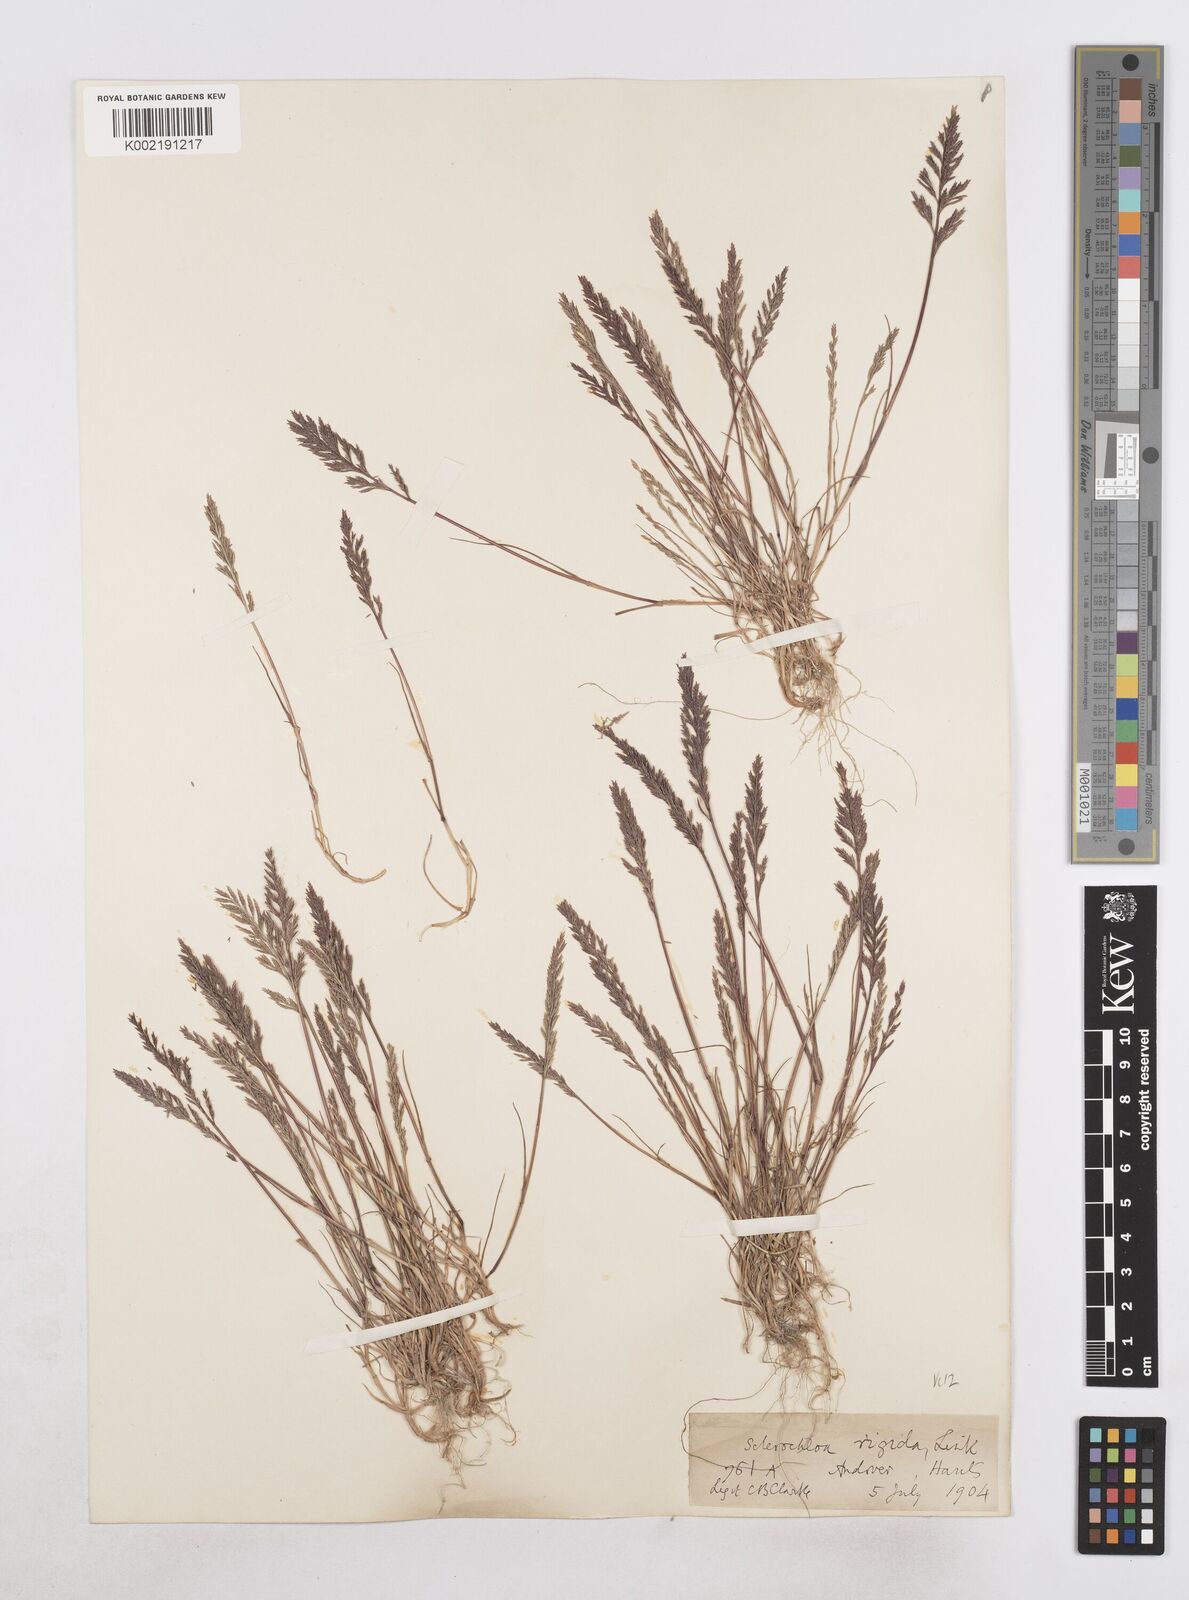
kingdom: Plantae
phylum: Tracheophyta
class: Liliopsida
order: Poales
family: Poaceae
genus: Catapodium
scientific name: Catapodium rigidum
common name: Fern-grass
